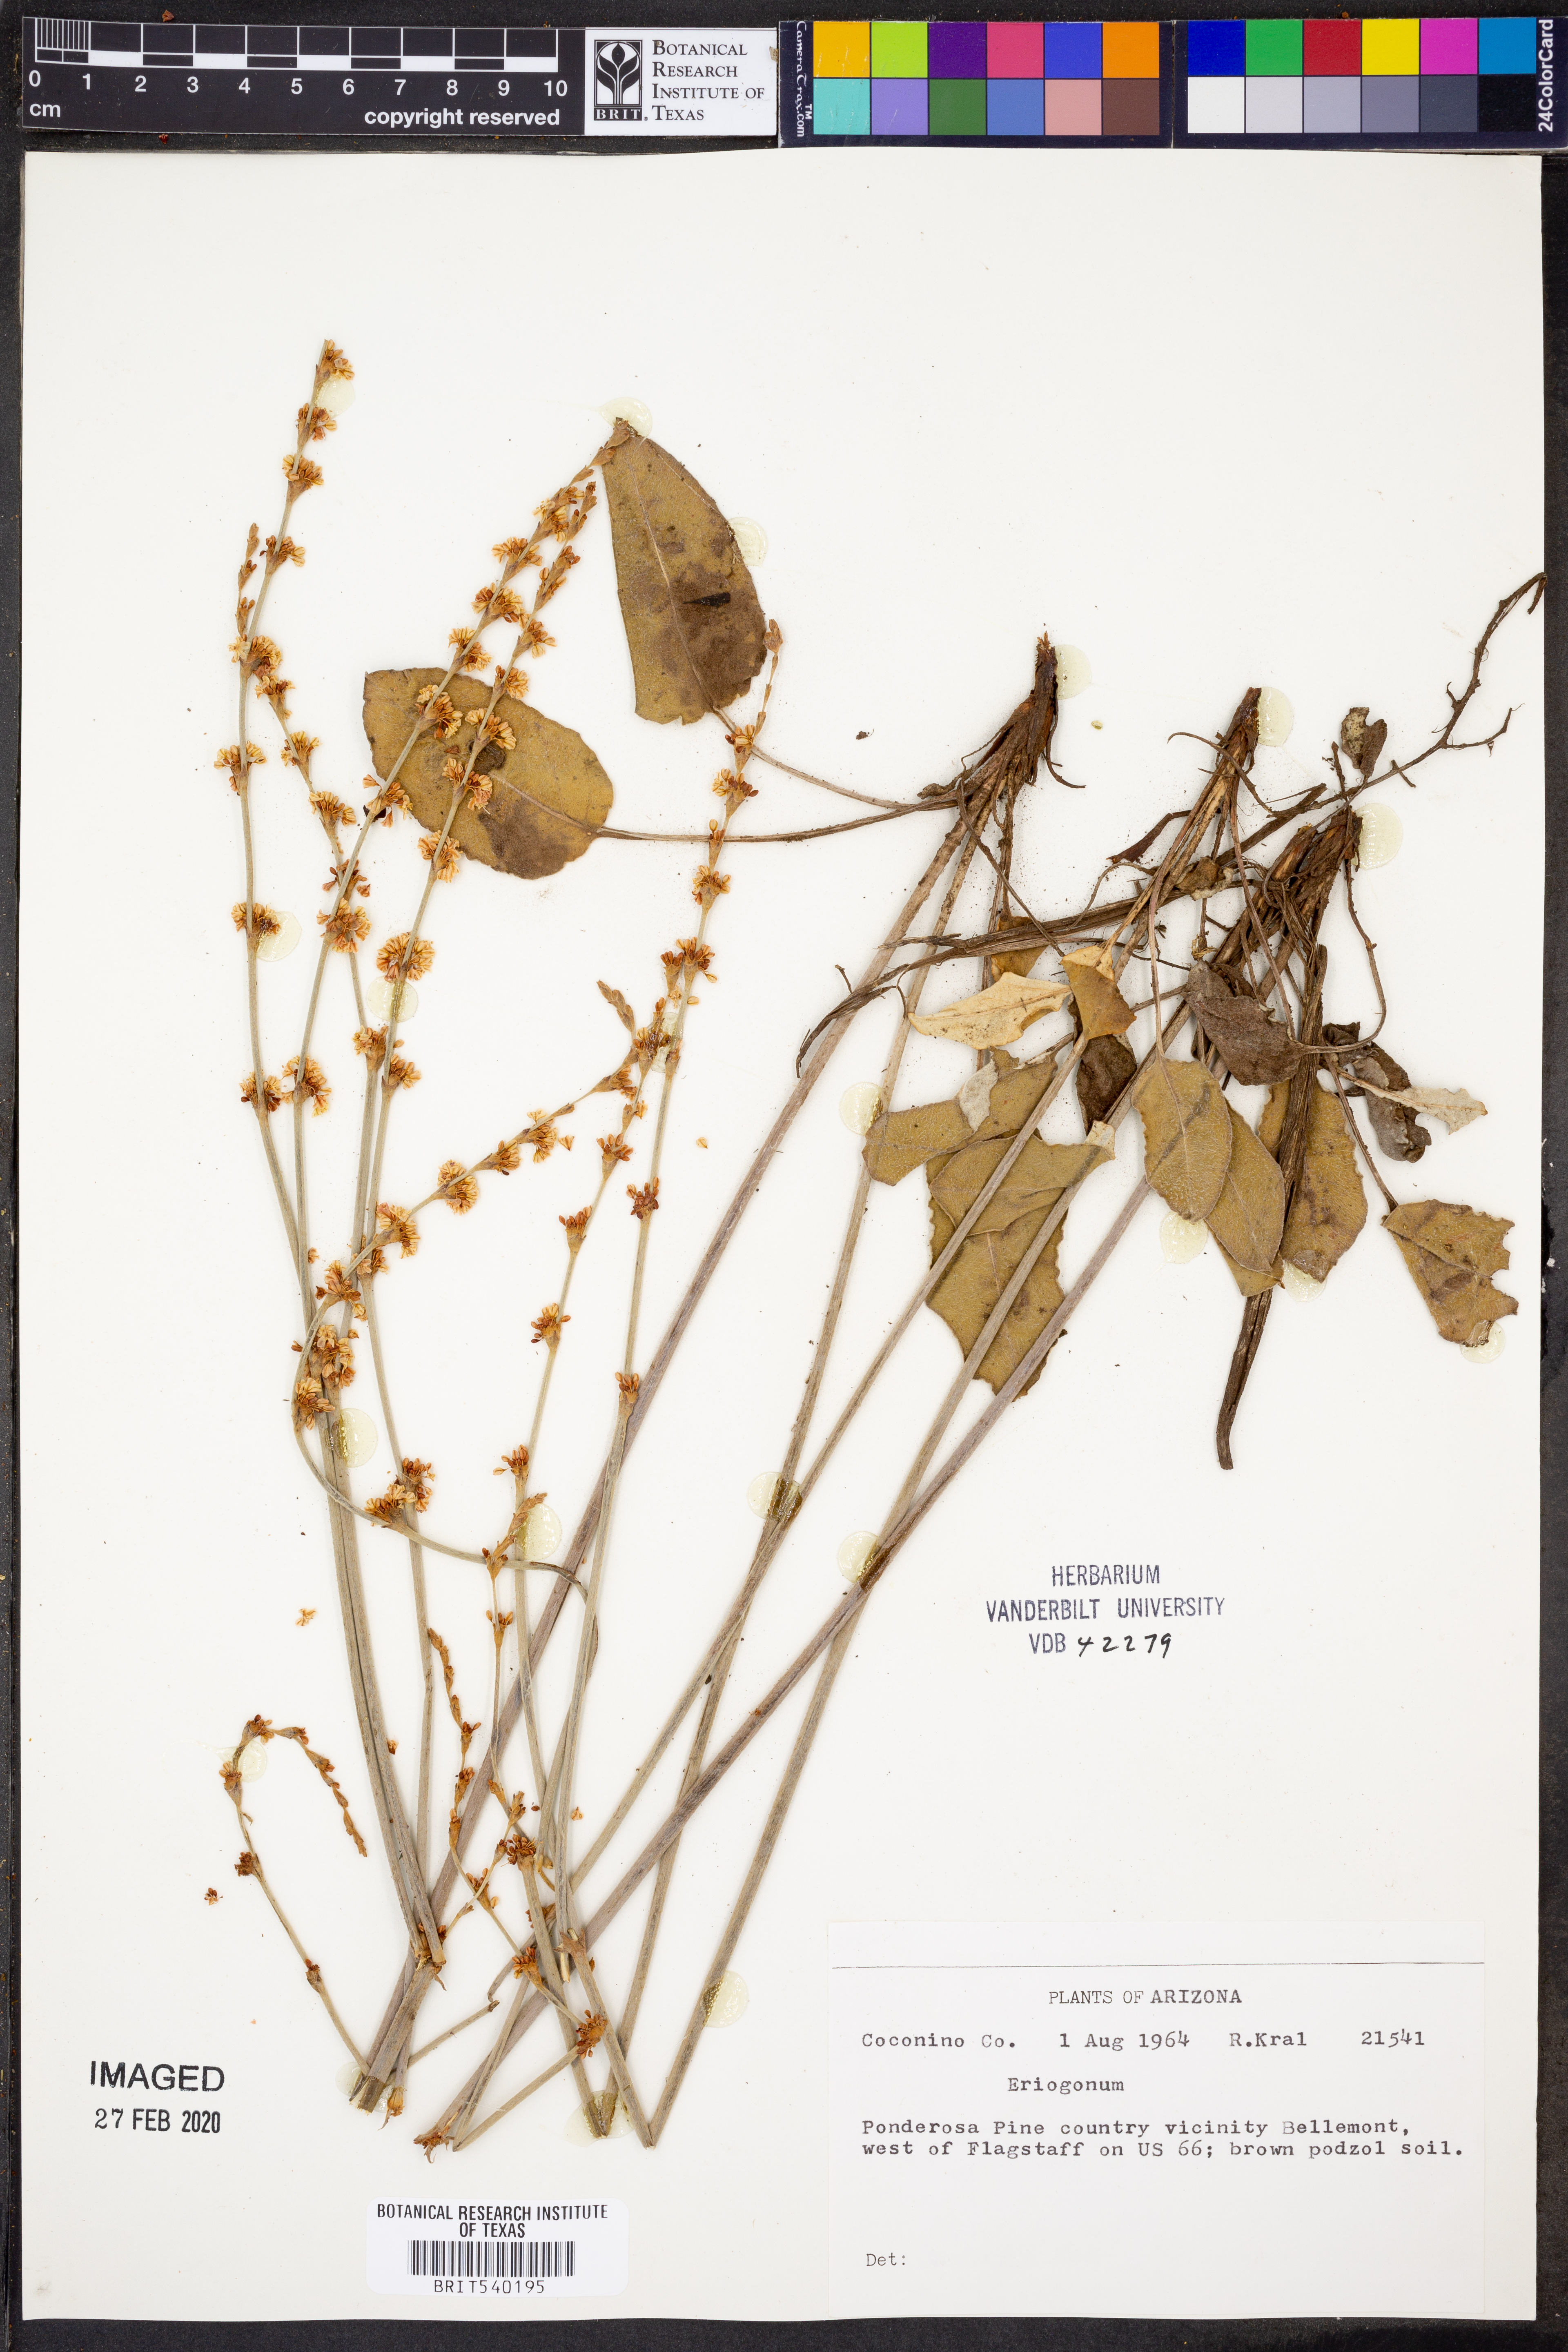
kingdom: Plantae
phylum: Tracheophyta
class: Magnoliopsida
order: Caryophyllales
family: Polygonaceae
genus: Eriogonum
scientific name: Eriogonum
